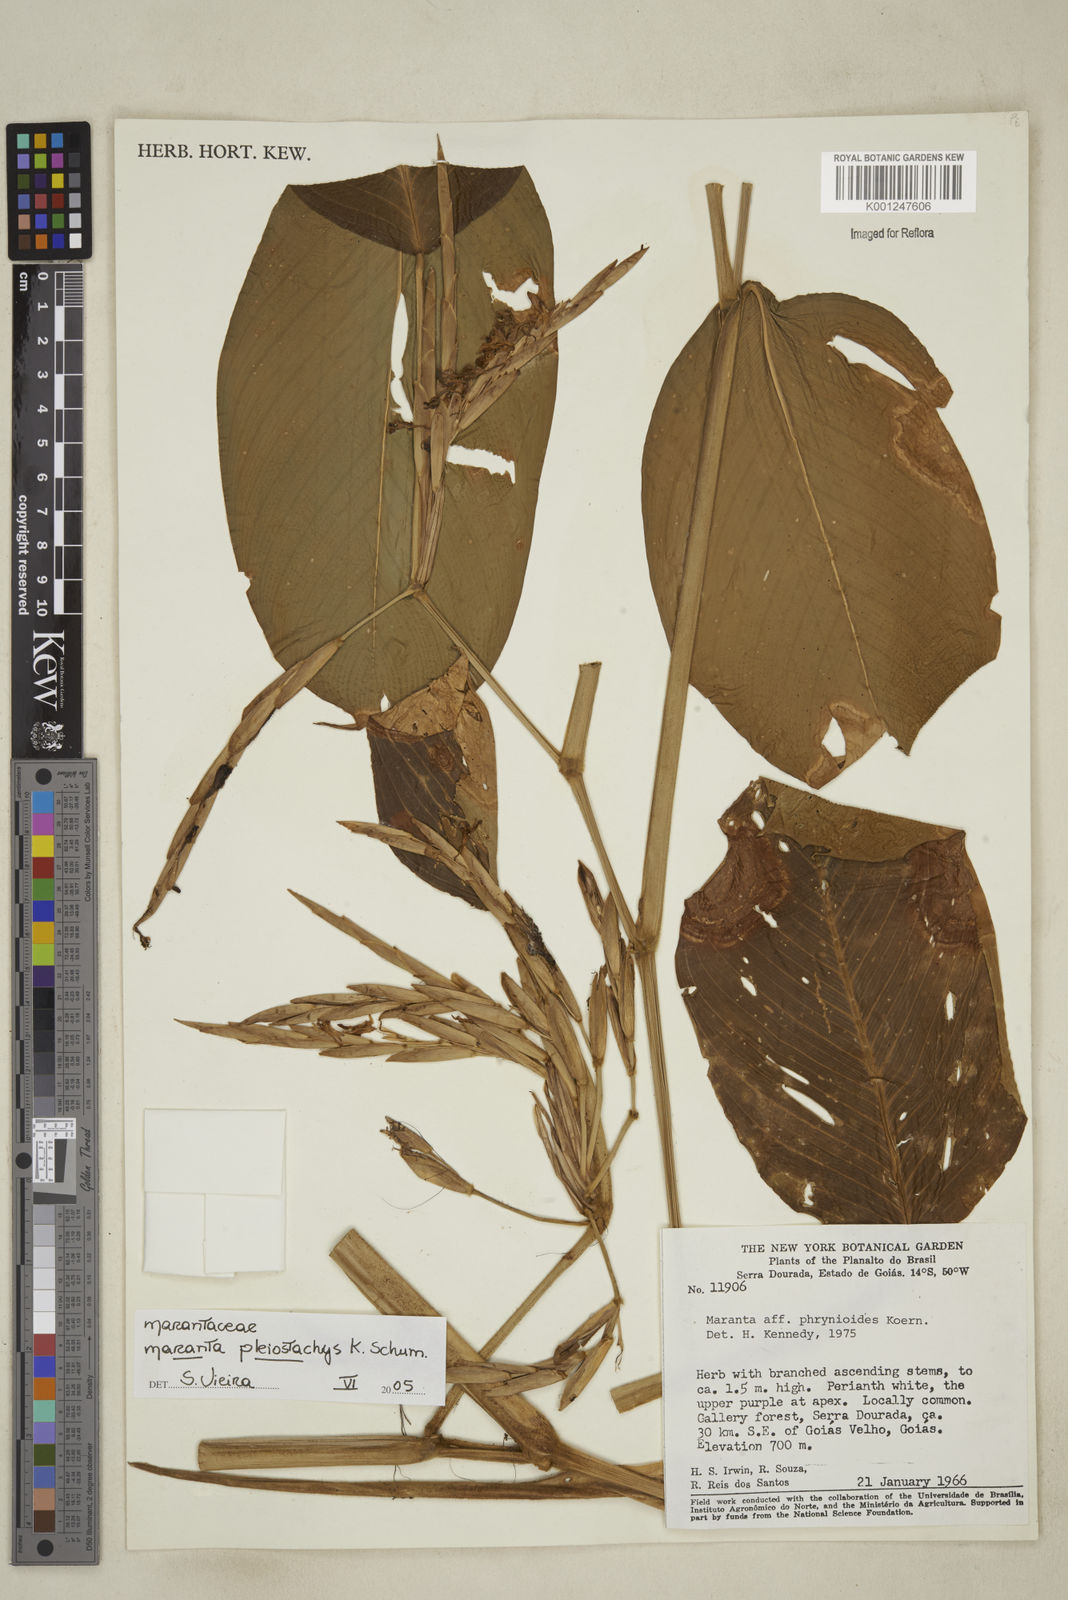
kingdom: Plantae
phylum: Tracheophyta
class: Liliopsida
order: Zingiberales
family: Marantaceae
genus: Maranta
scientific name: Maranta phrynioides
